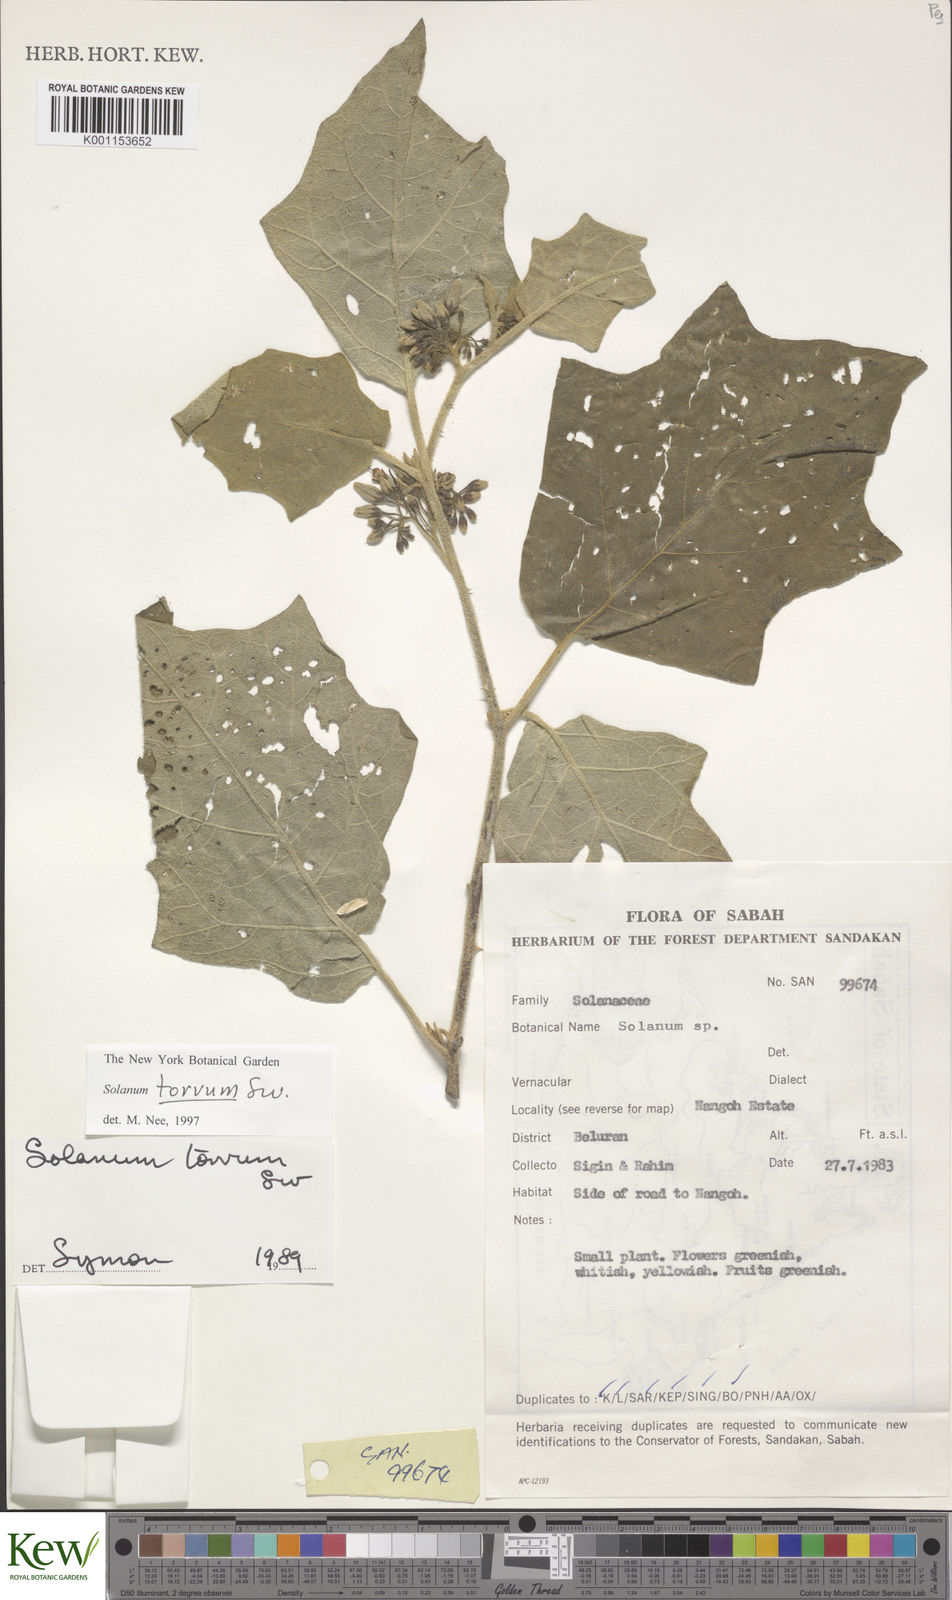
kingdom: Plantae
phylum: Tracheophyta
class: Magnoliopsida
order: Solanales
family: Solanaceae
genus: Solanum
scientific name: Solanum torvum
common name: Turkey berry
